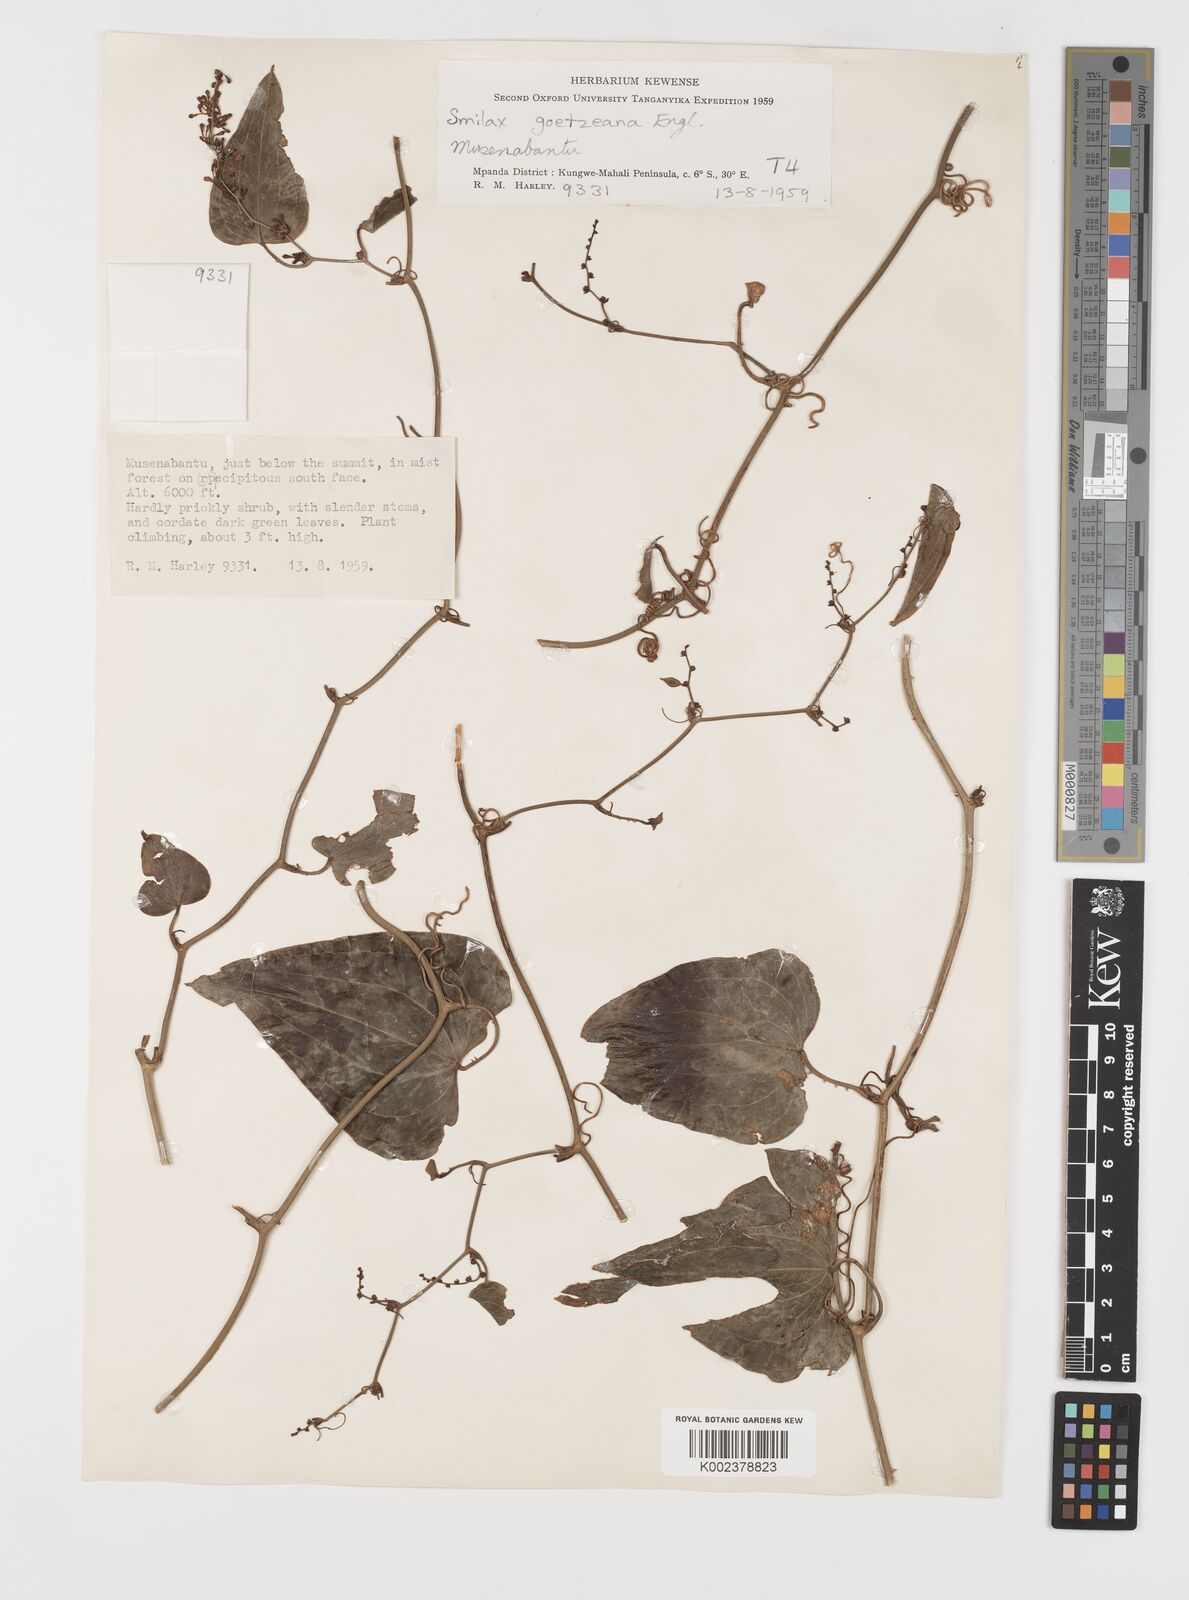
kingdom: Plantae
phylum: Tracheophyta
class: Liliopsida
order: Liliales
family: Smilacaceae
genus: Smilax
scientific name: Smilax aspera
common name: Common smilax
